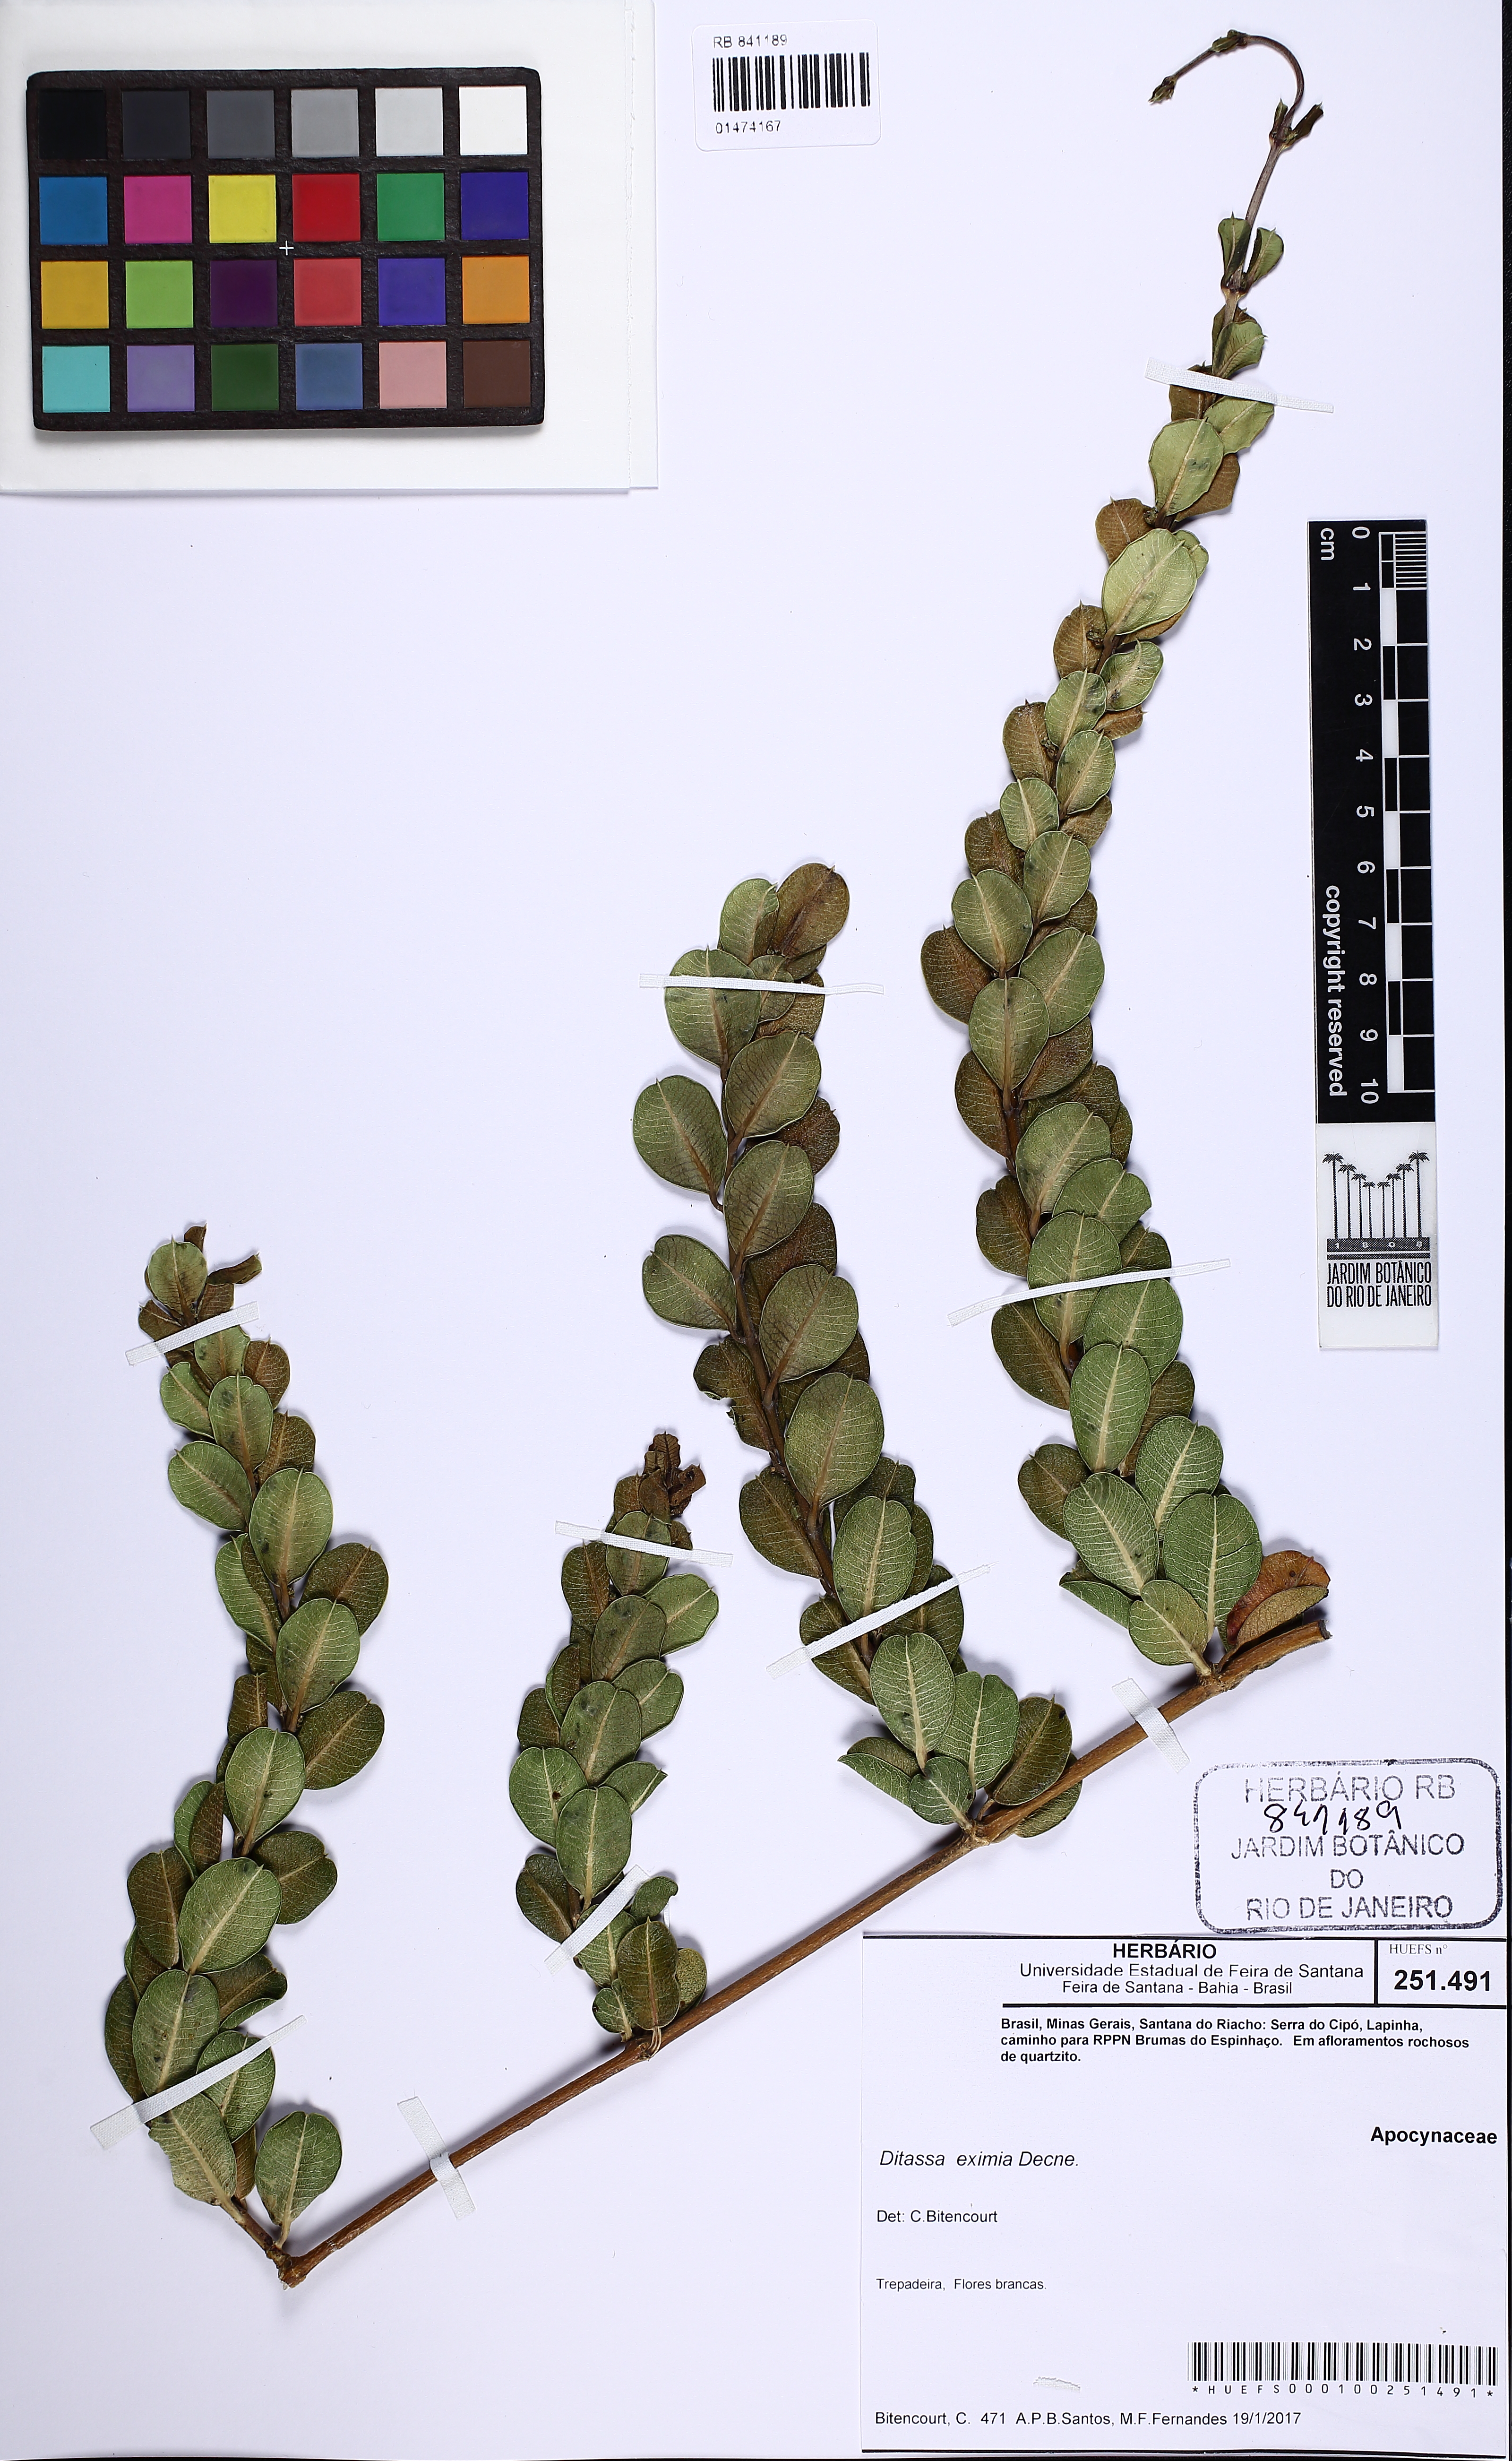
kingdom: Plantae
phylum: Tracheophyta
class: Magnoliopsida
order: Gentianales
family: Apocynaceae
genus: Ditassa
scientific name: Ditassa eximia
